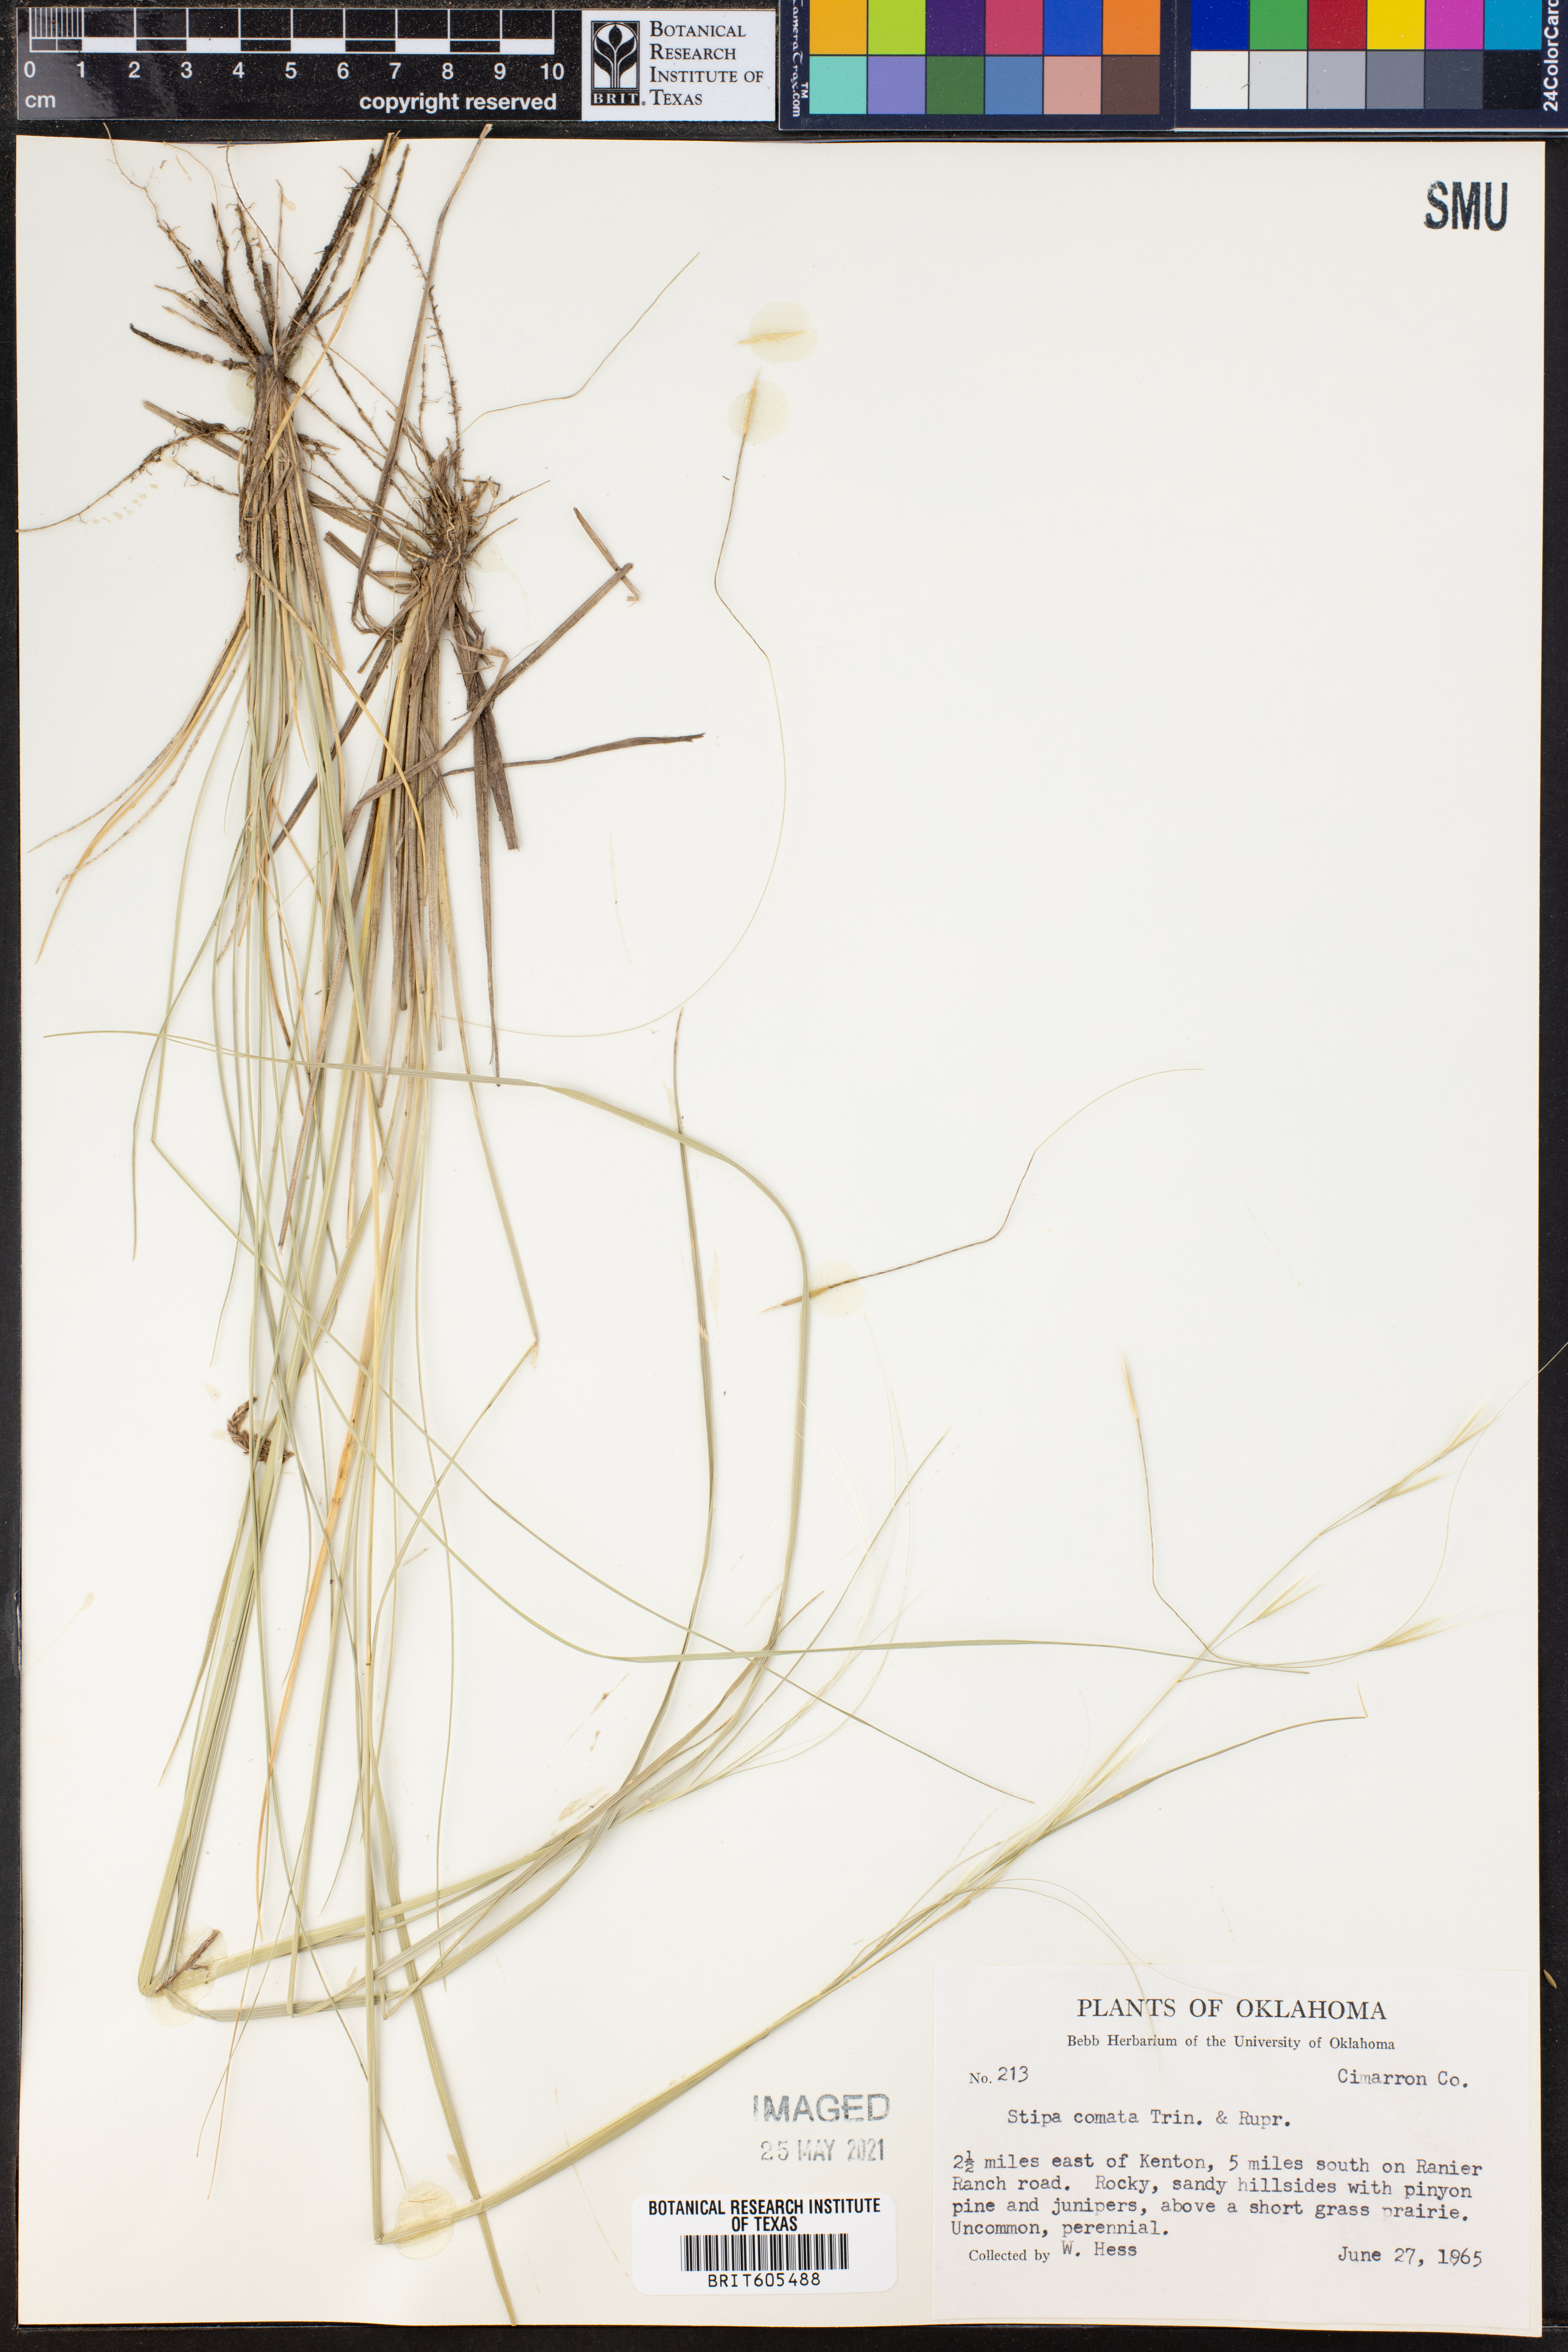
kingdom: Plantae
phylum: Tracheophyta
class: Liliopsida
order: Poales
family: Poaceae
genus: Hesperostipa
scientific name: Hesperostipa comata
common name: Needle-and-thread grass
